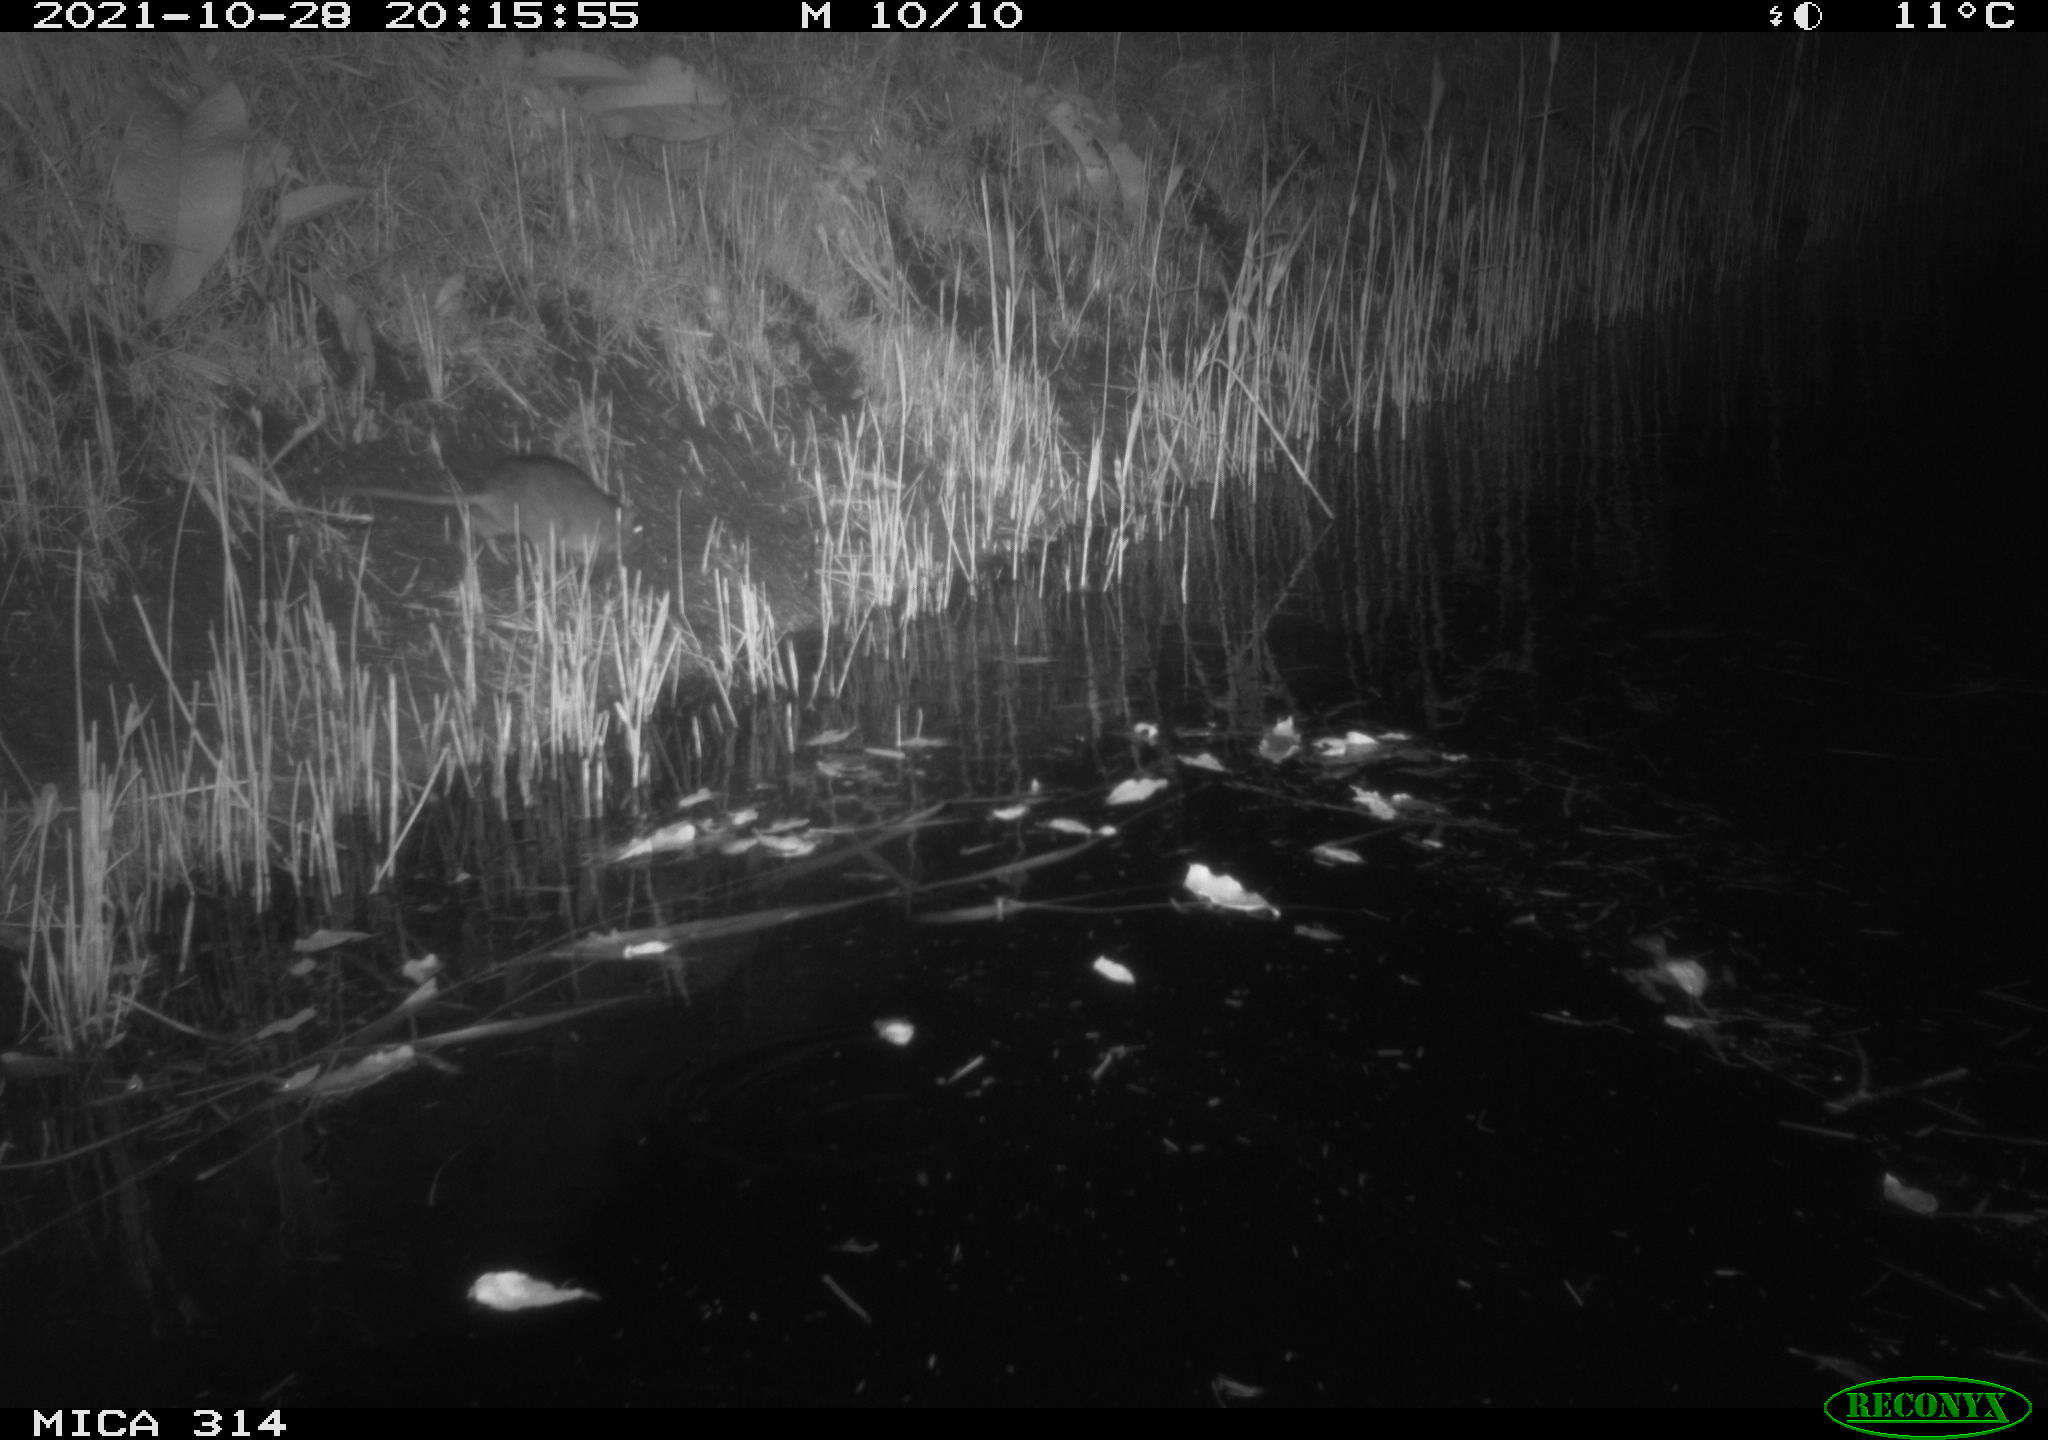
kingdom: Animalia
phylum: Chordata
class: Mammalia
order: Rodentia
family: Muridae
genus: Rattus
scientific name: Rattus norvegicus
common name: Brown rat
